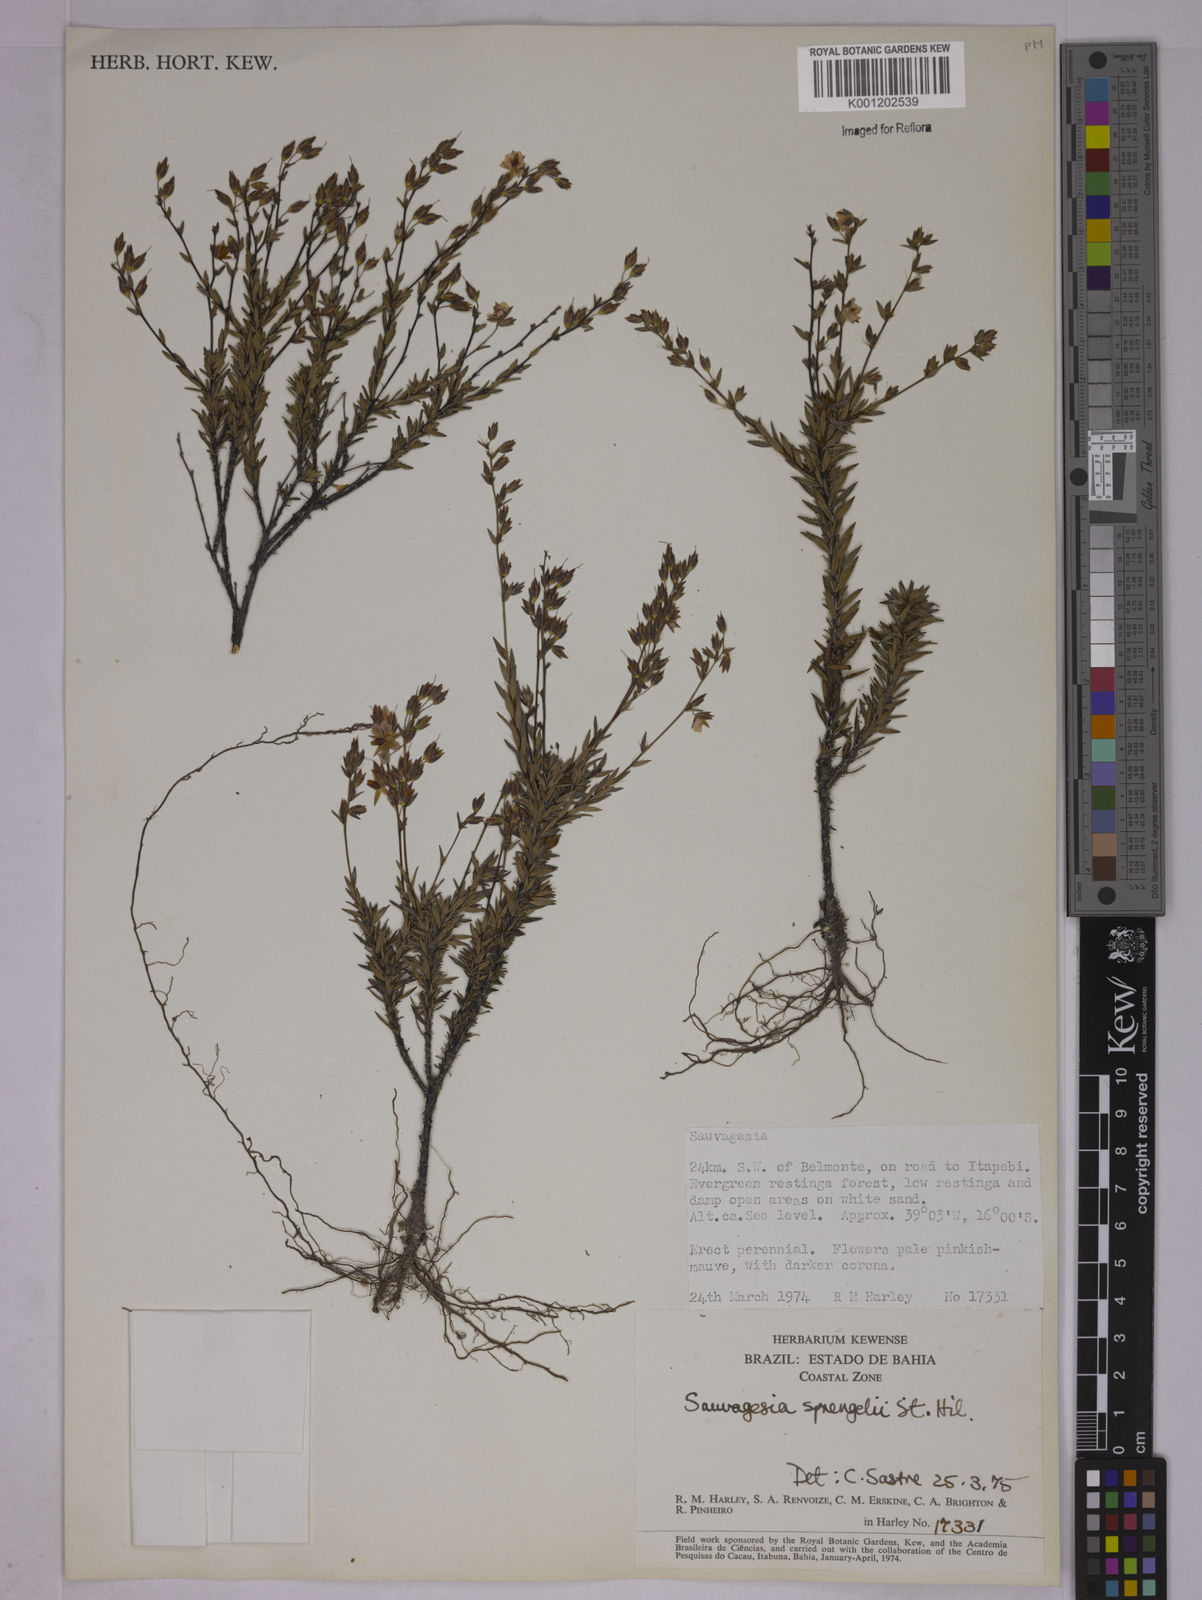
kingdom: Plantae
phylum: Tracheophyta
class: Magnoliopsida
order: Malpighiales
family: Ochnaceae
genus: Sauvagesia
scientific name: Sauvagesia sprengelii
